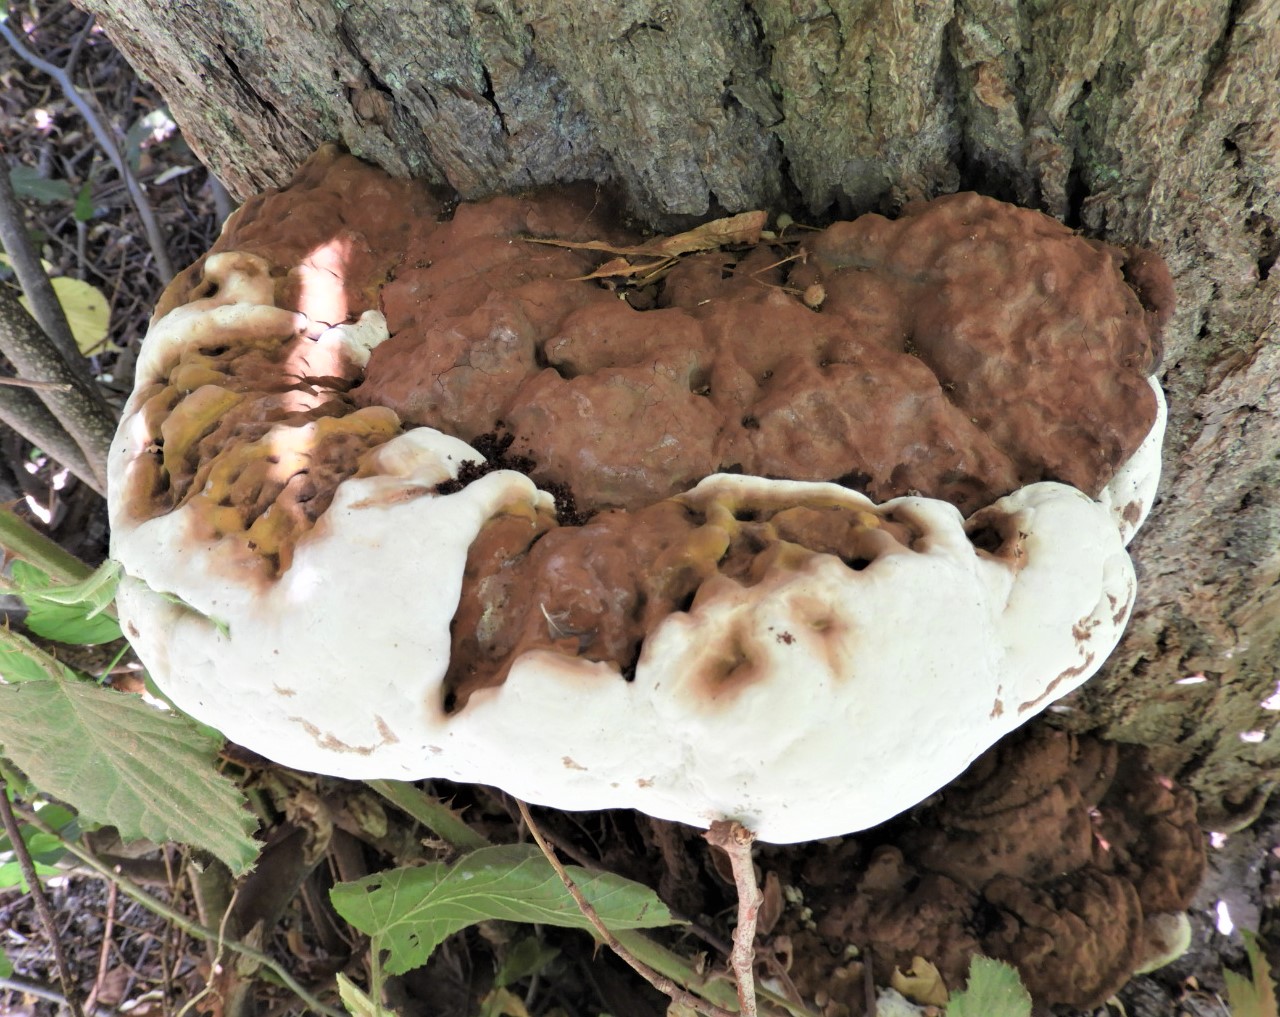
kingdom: Fungi
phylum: Basidiomycota
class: Agaricomycetes
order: Polyporales
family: Polyporaceae
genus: Ganoderma
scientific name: Ganoderma adspersum
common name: grov lakporesvamp
